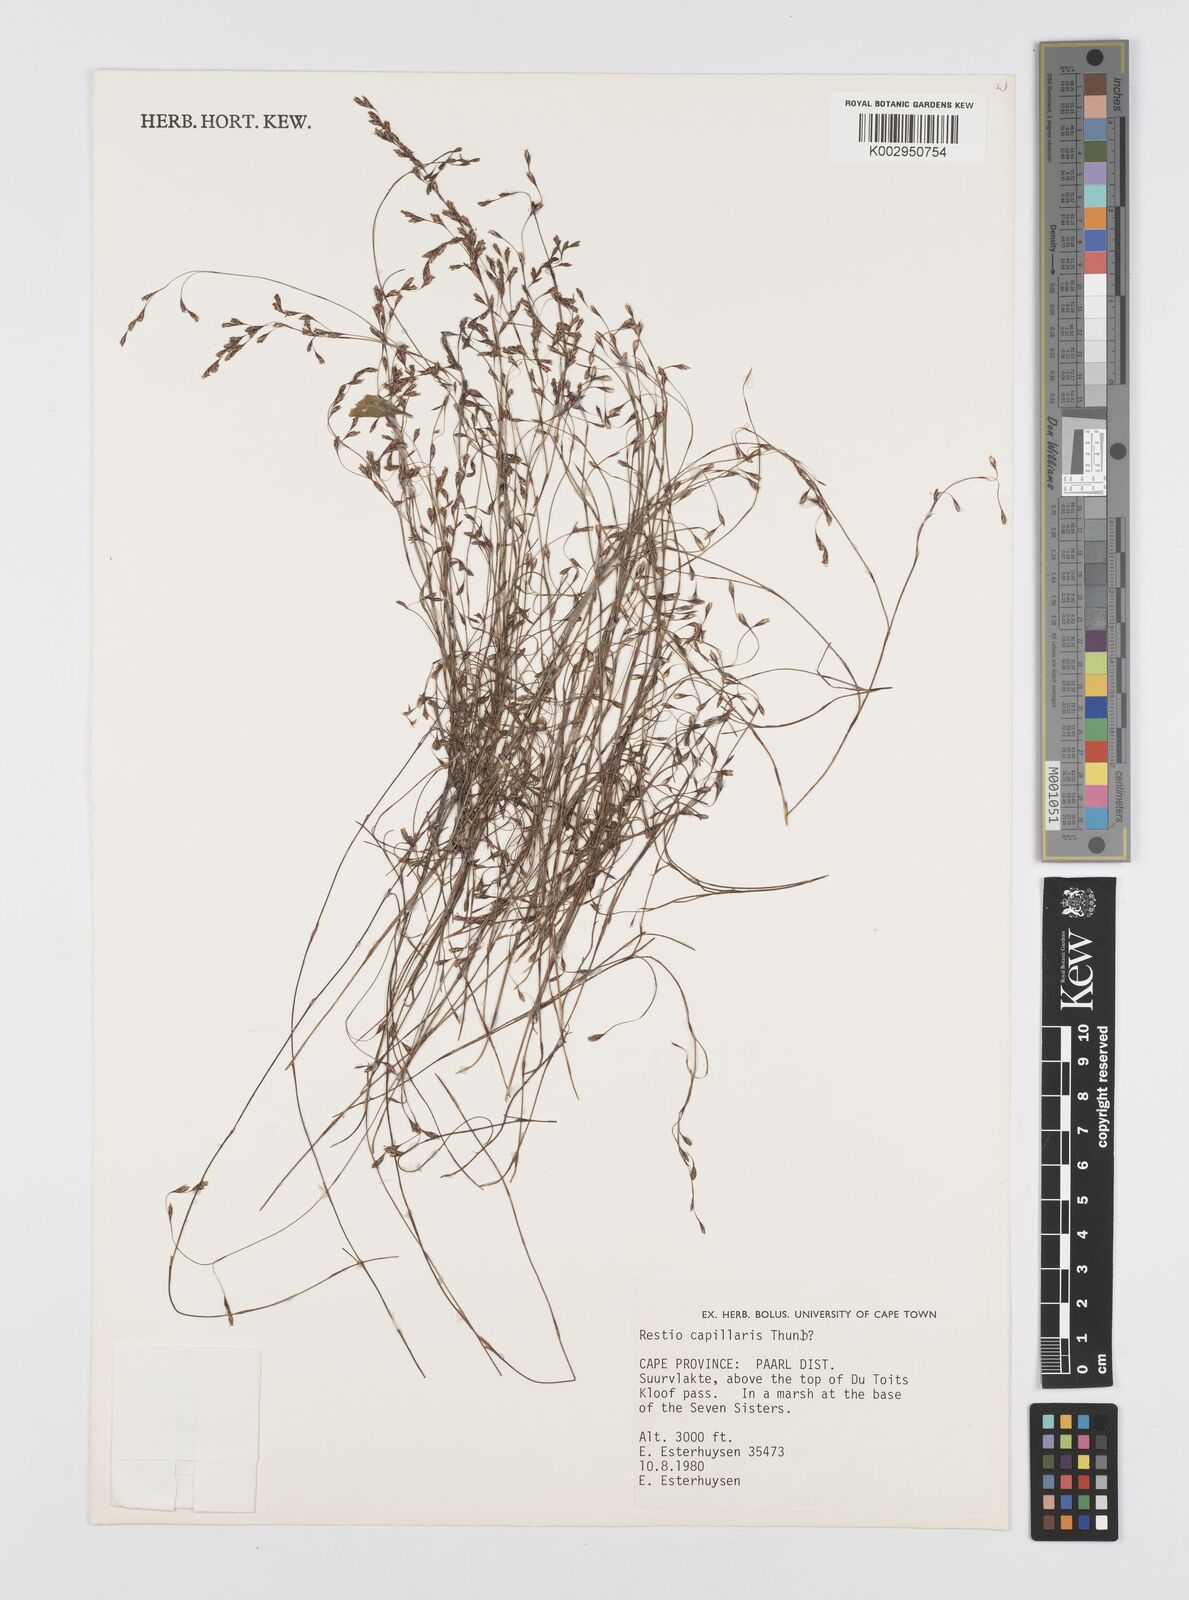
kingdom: Plantae
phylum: Tracheophyta
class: Liliopsida
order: Poales
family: Restionaceae
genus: Restio
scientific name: Restio capillaris
